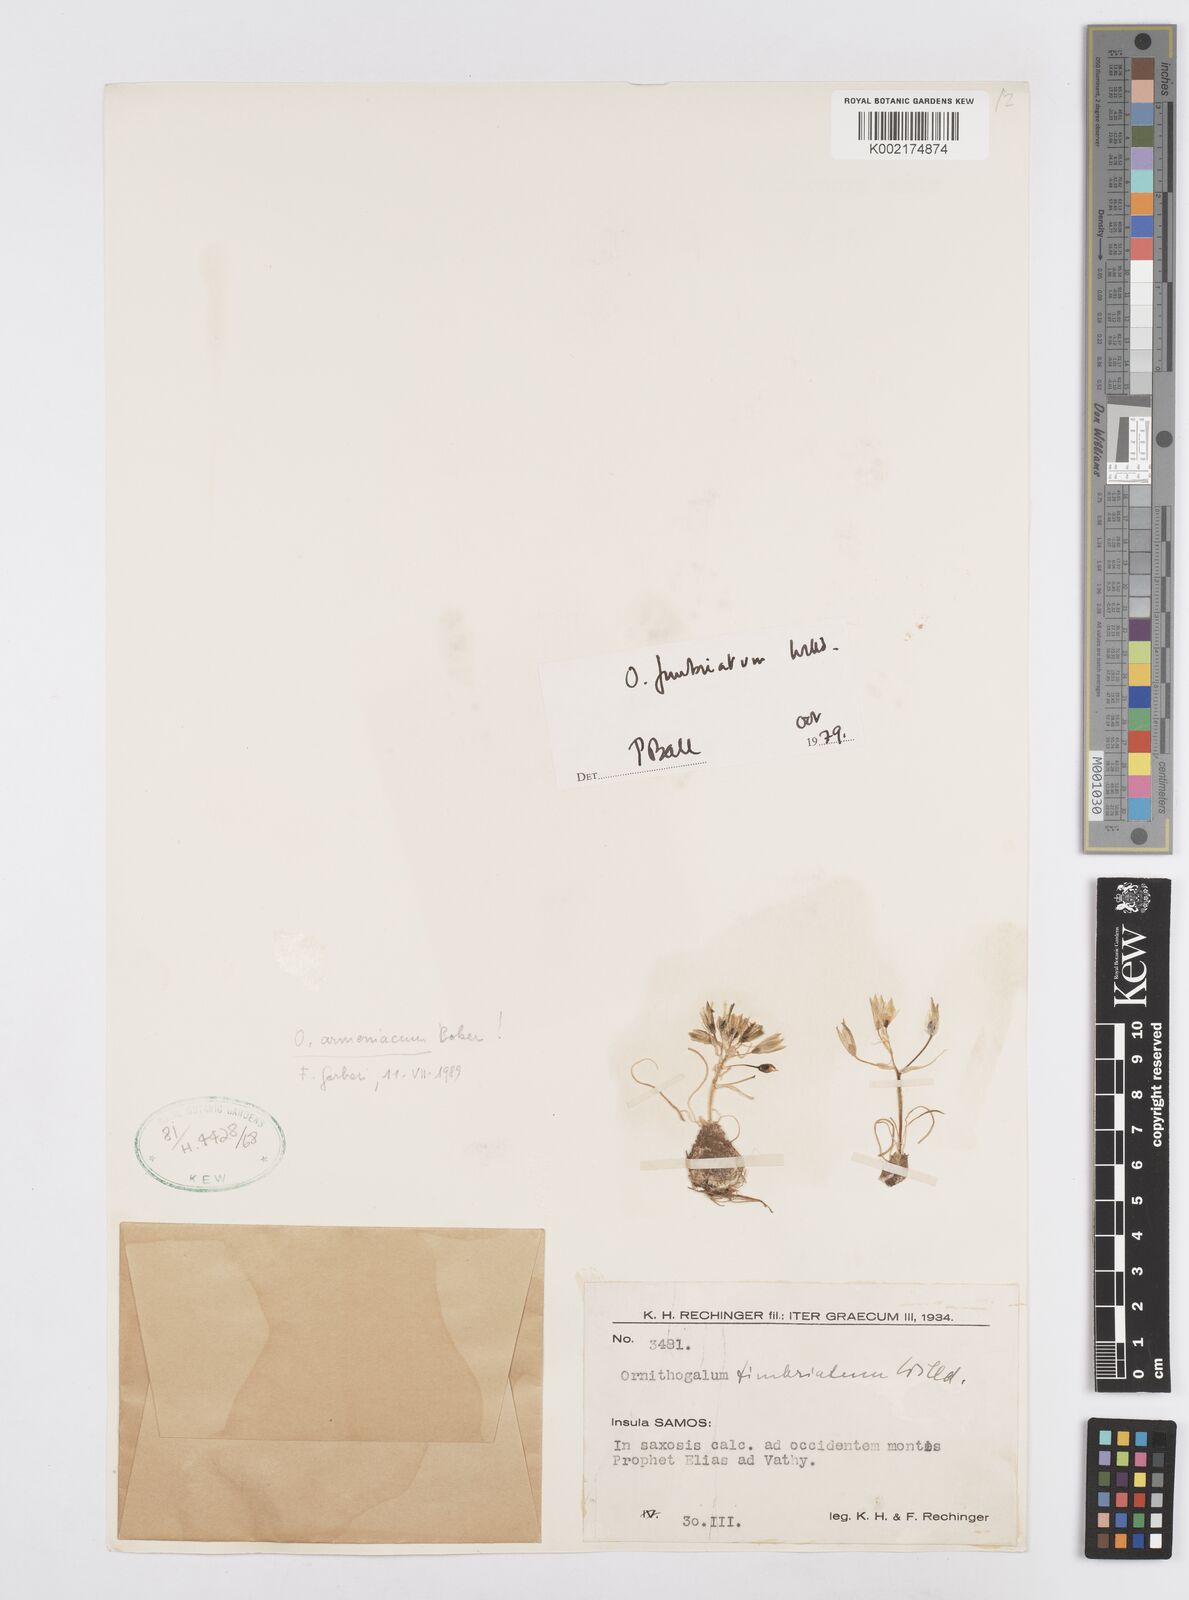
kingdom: Plantae
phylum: Tracheophyta
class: Liliopsida
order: Asparagales
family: Asparagaceae
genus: Ornithogalum
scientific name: Ornithogalum armeniacum
